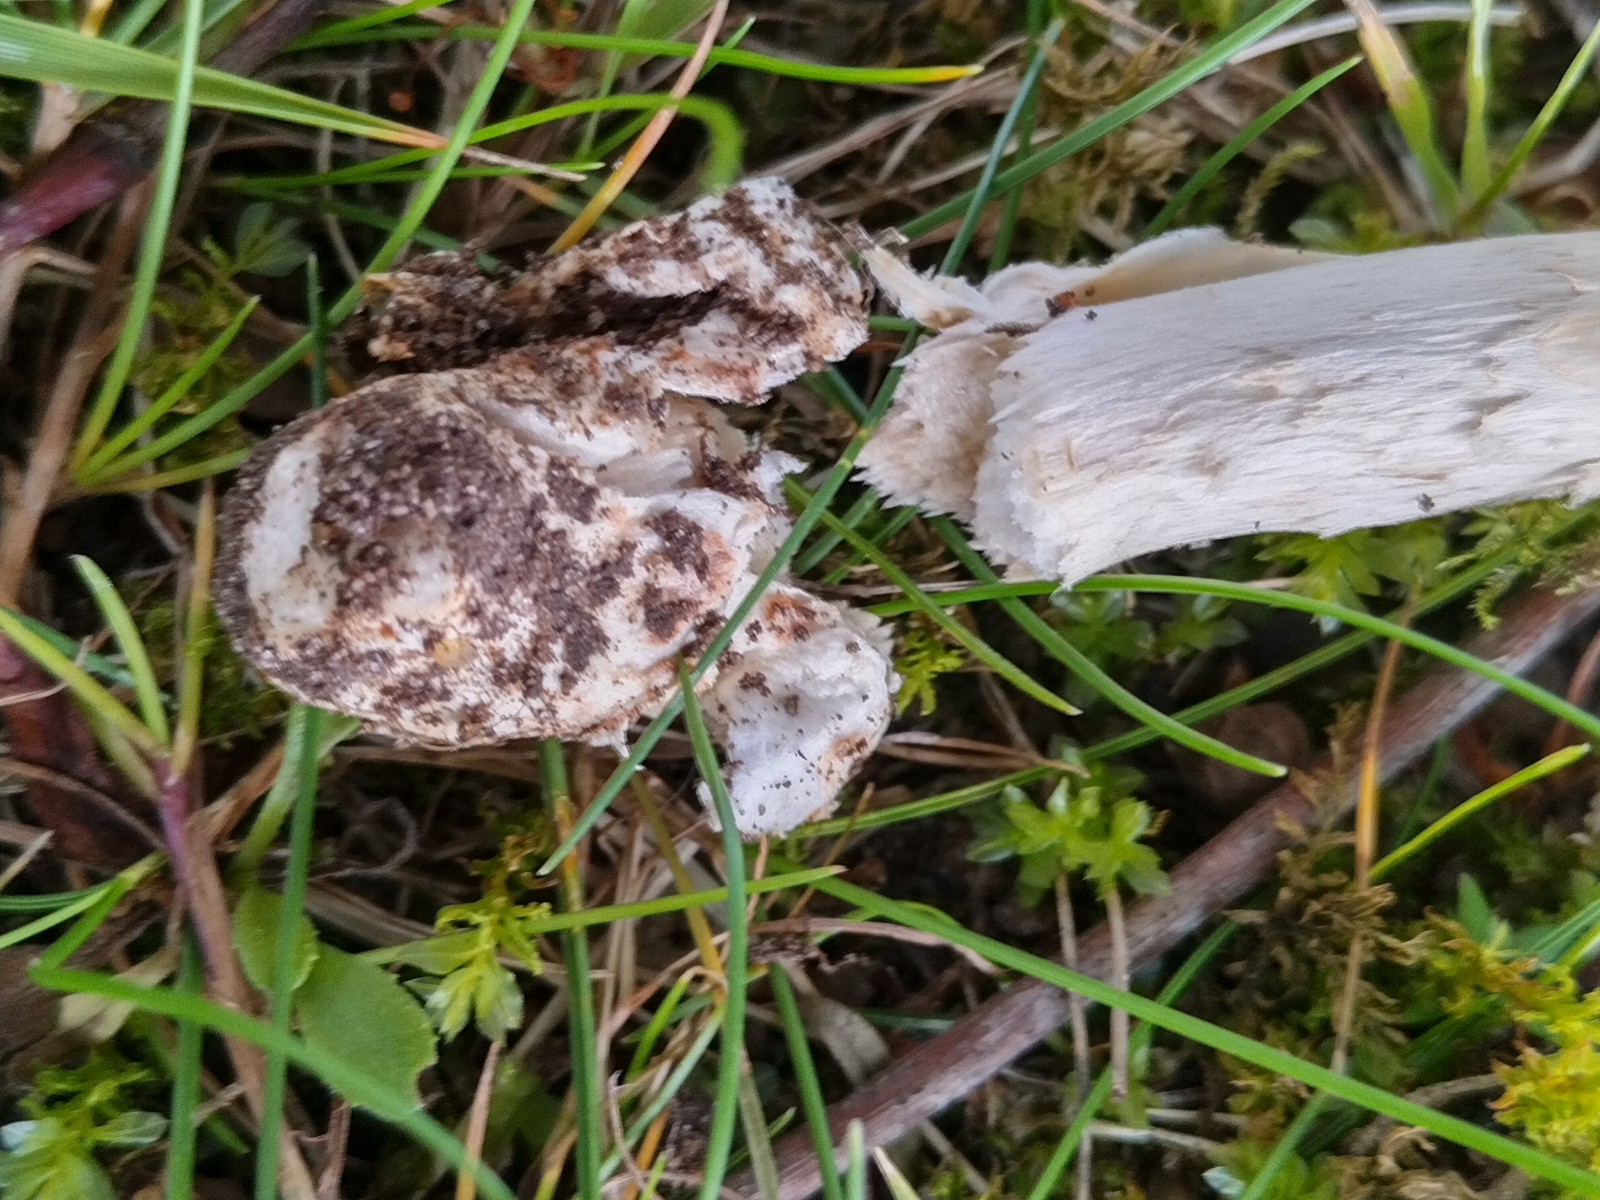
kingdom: Fungi
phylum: Basidiomycota
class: Agaricomycetes
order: Agaricales
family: Amanitaceae
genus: Amanita
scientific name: Amanita fulva
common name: brun kam-fluesvamp
